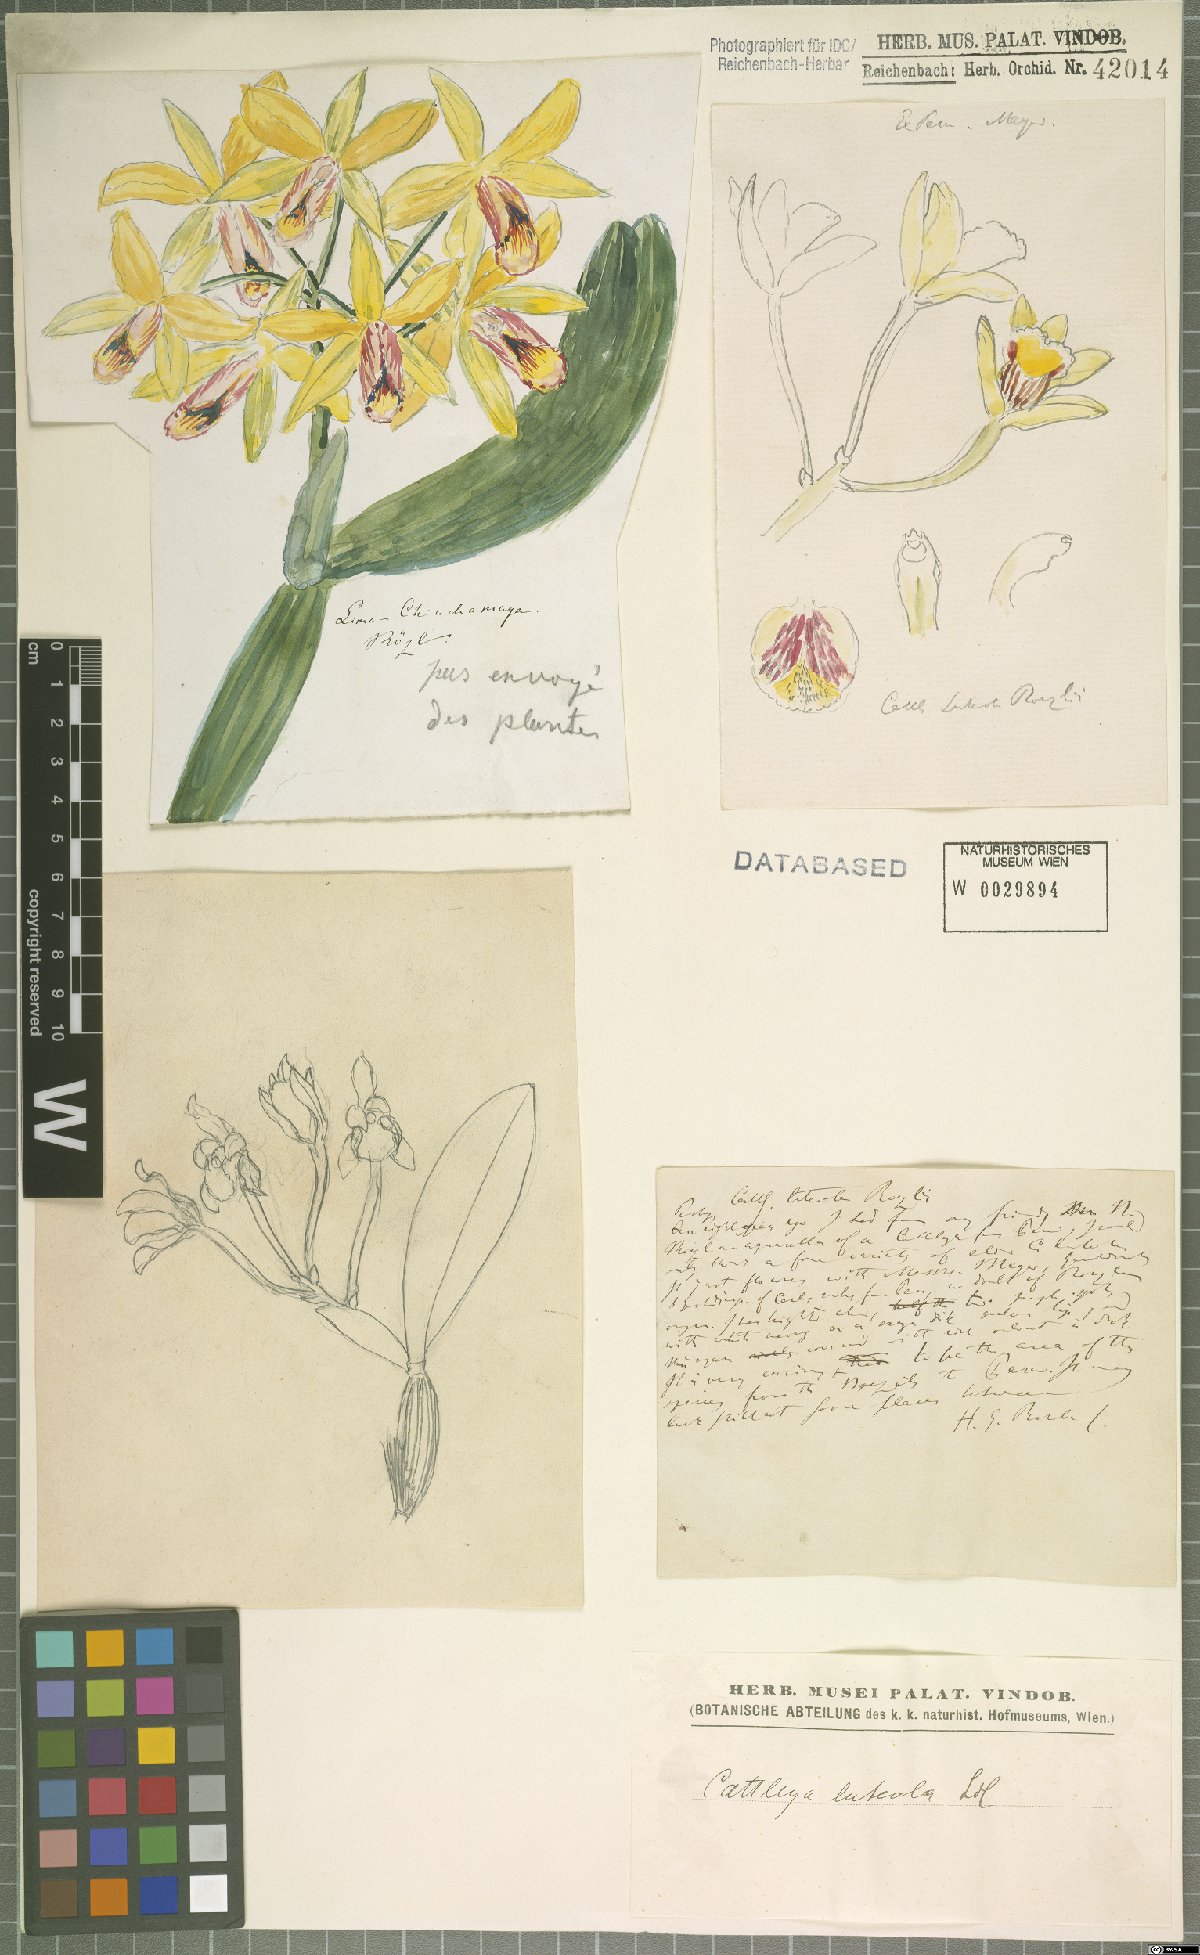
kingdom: Plantae
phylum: Tracheophyta
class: Liliopsida
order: Asparagales
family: Orchidaceae
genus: Cattleya
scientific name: Cattleya luteola
